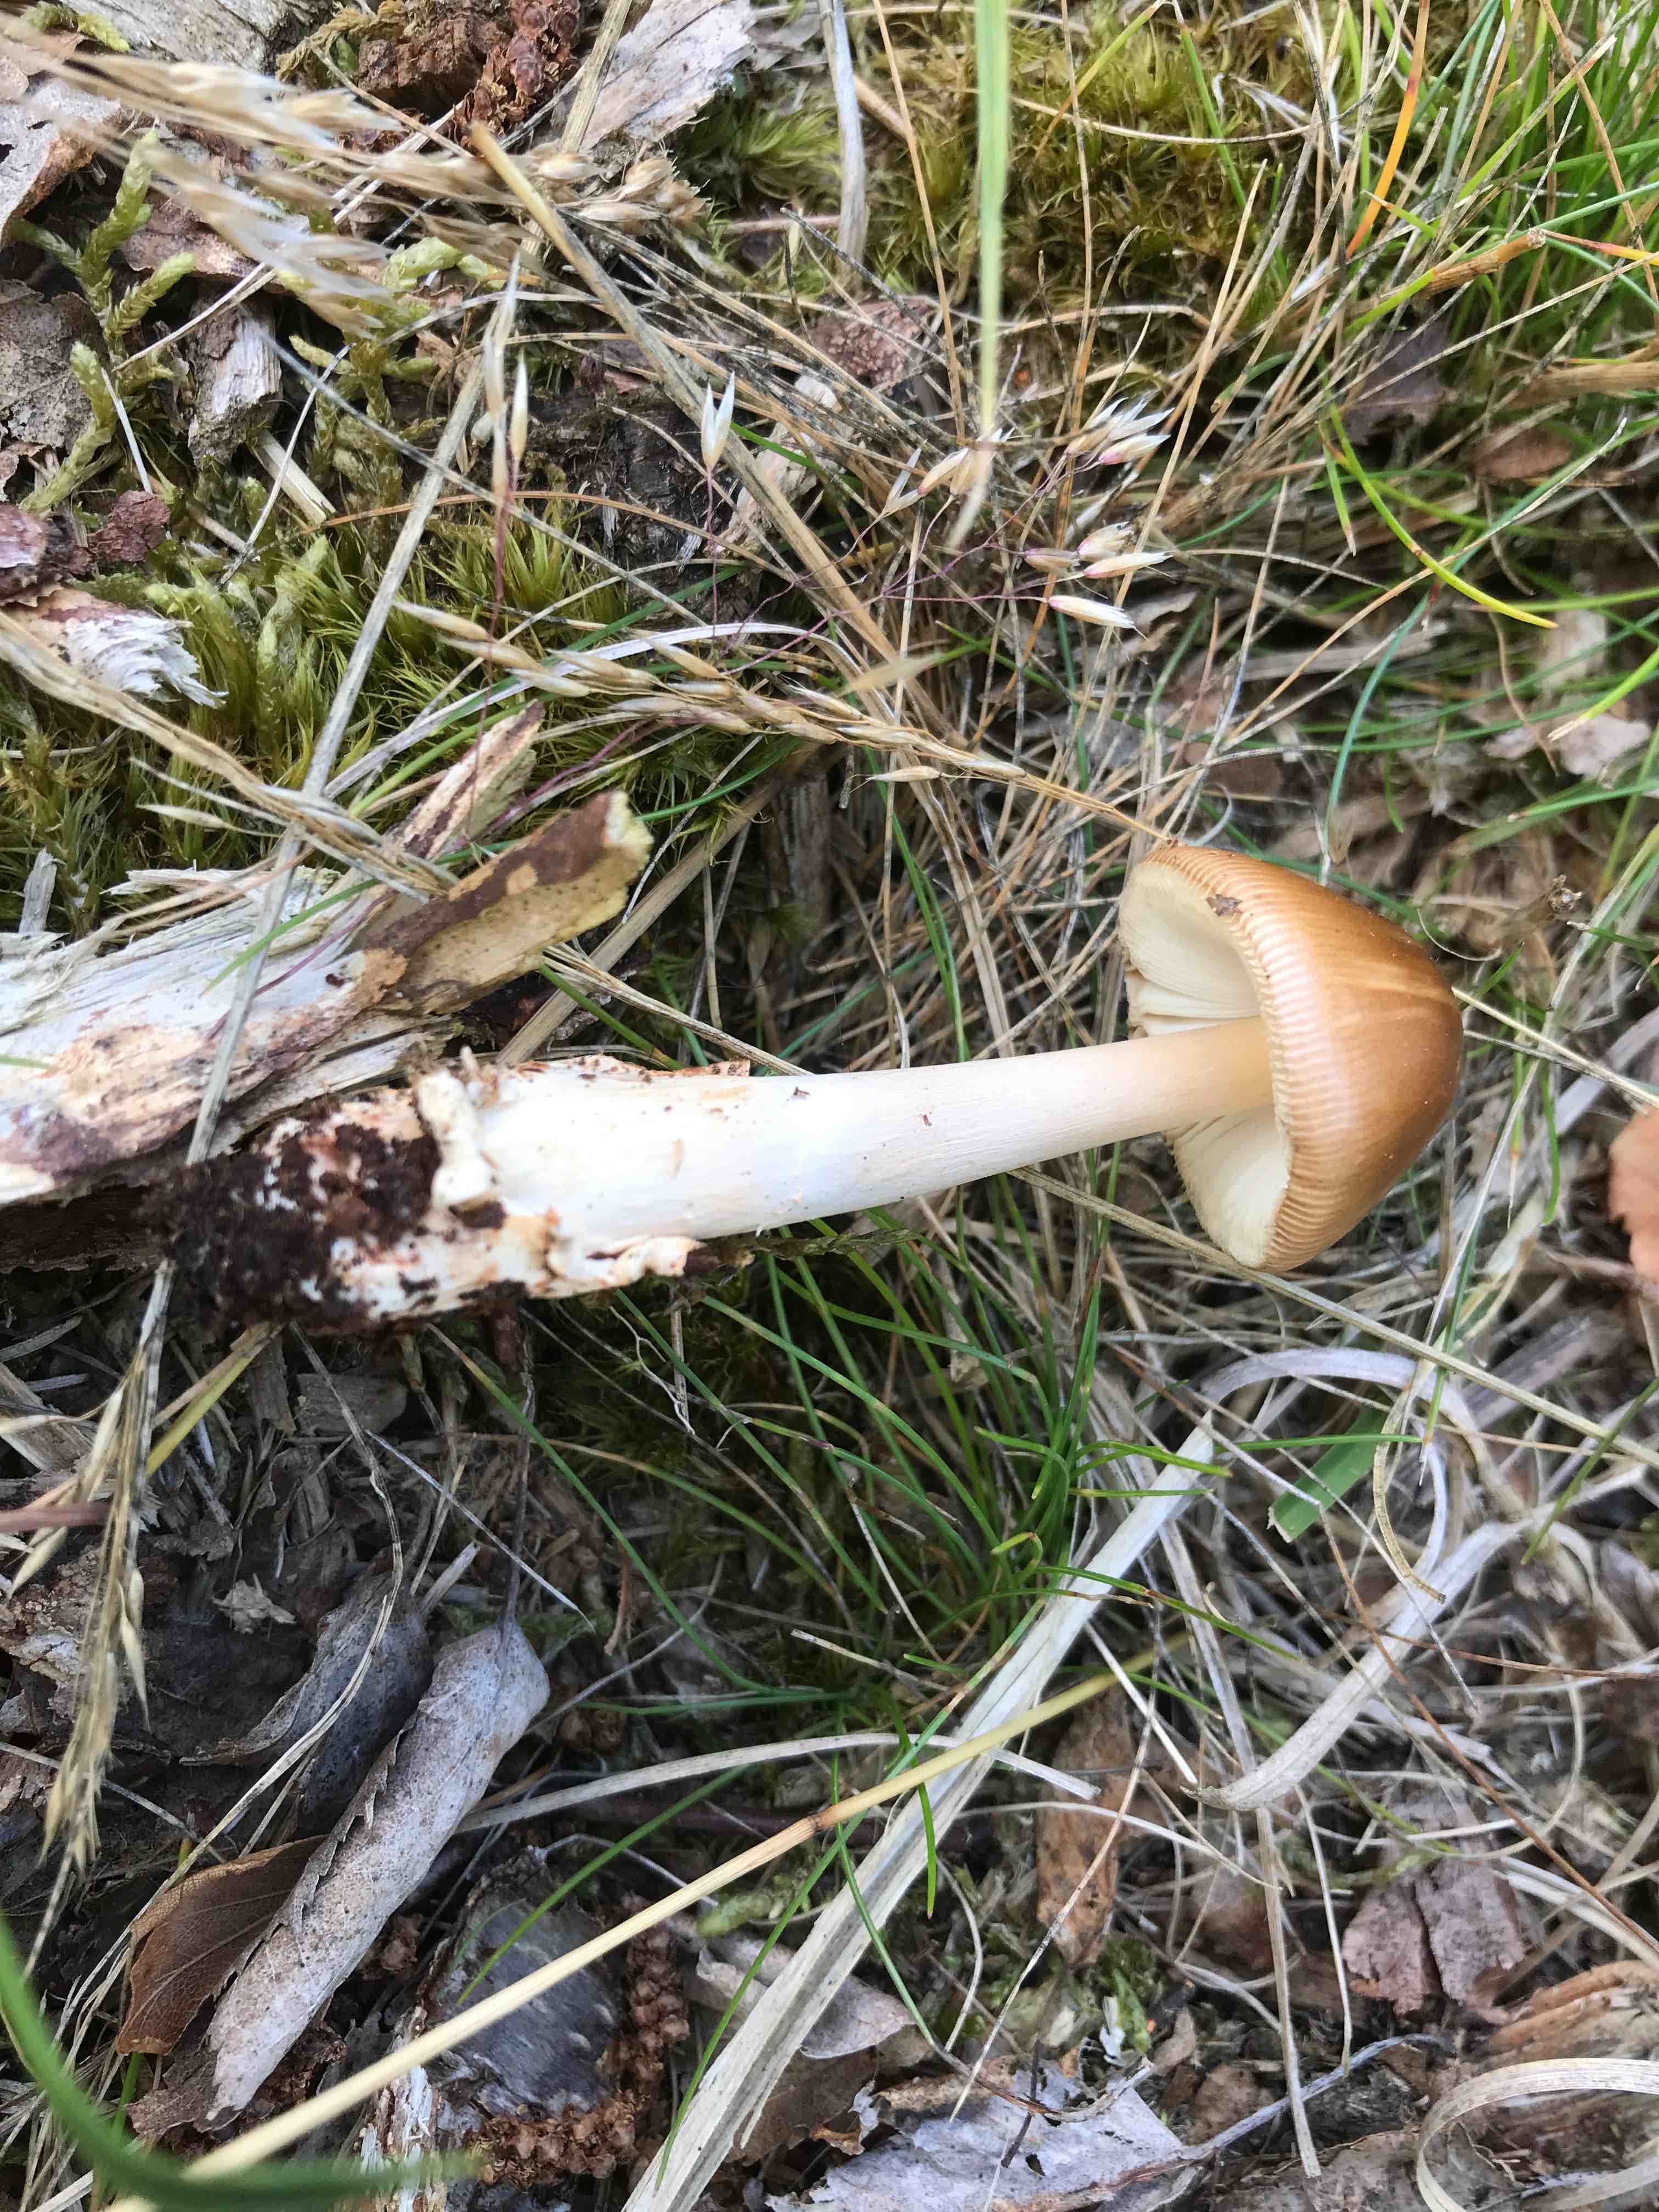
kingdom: Fungi
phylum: Basidiomycota
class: Agaricomycetes
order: Agaricales
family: Amanitaceae
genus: Amanita
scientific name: Amanita fulva
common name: brun kam-fluesvamp
